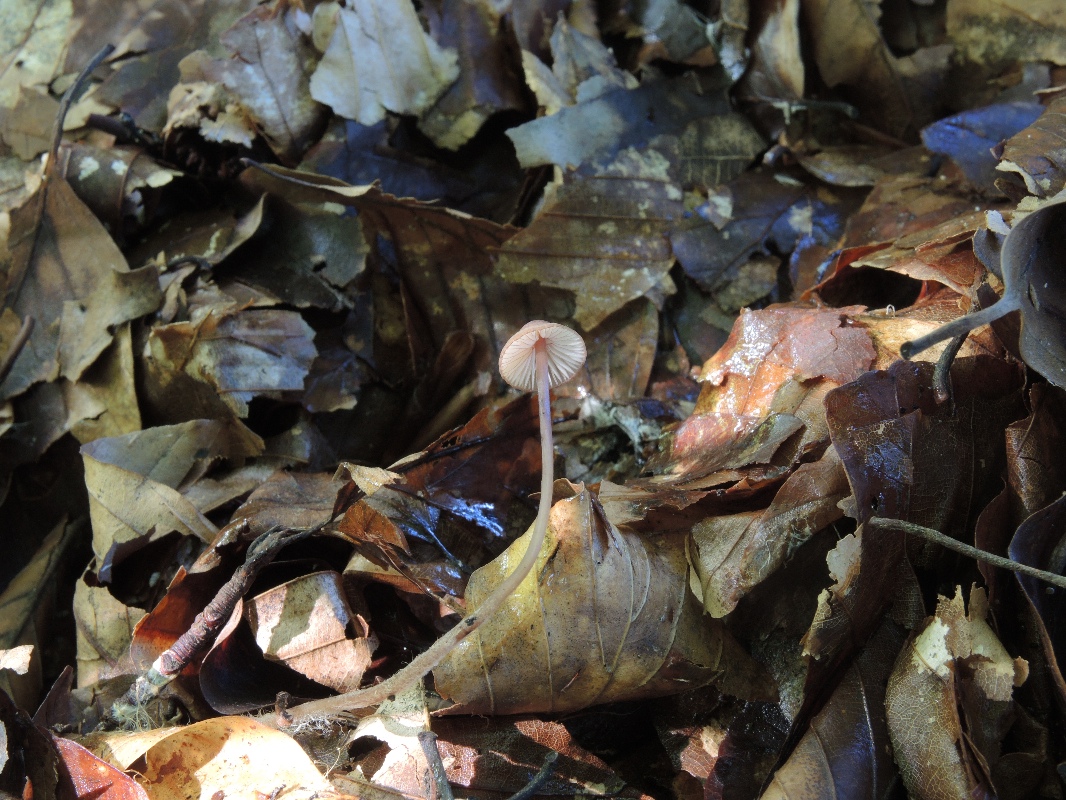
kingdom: Fungi
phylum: Basidiomycota
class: Agaricomycetes
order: Agaricales
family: Mycenaceae
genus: Mycena
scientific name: Mycena sanguinolenta
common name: rødmælket huesvamp
